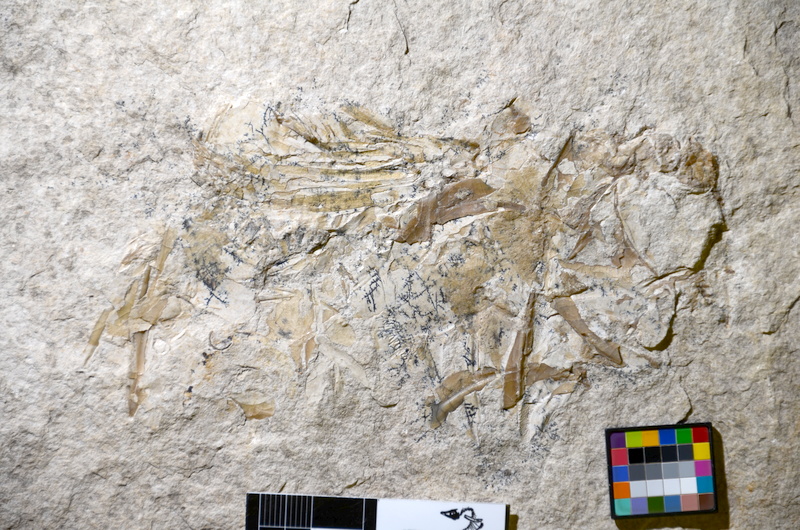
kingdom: Animalia
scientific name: Animalia
